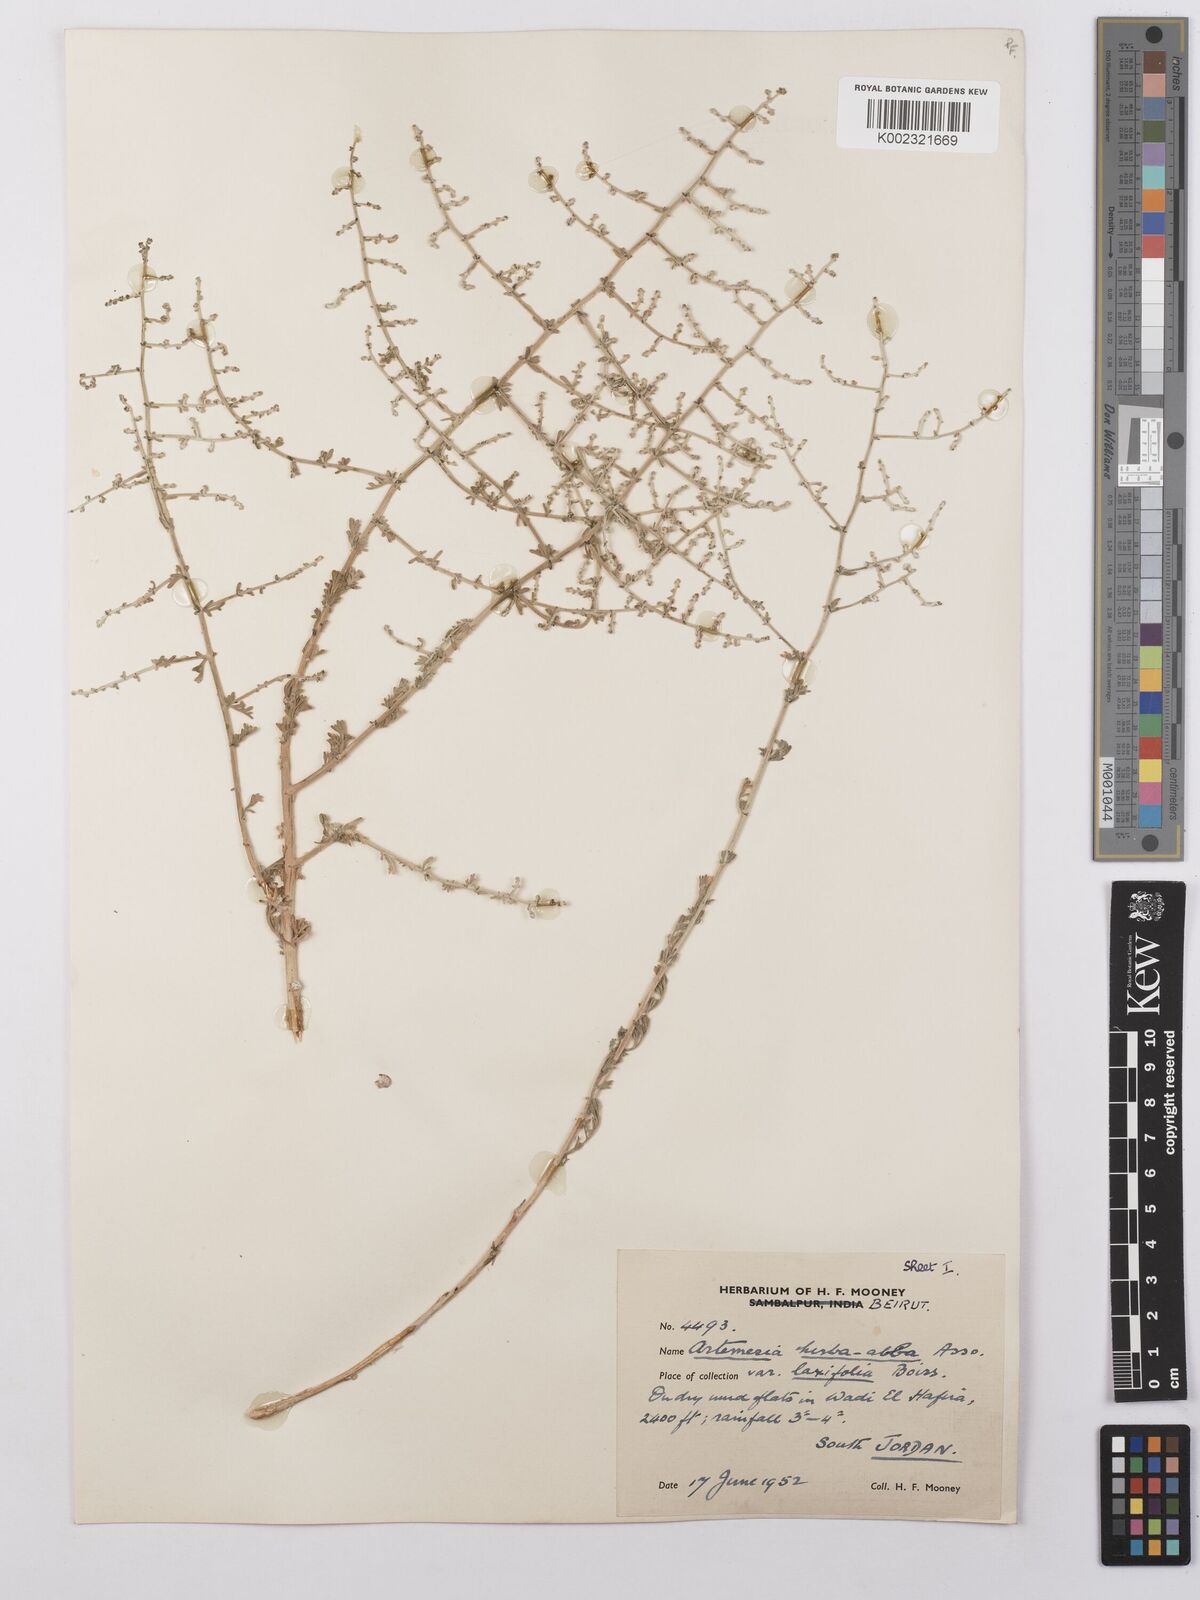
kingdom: Plantae
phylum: Tracheophyta
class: Magnoliopsida
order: Asterales
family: Asteraceae
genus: Artemisia
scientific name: Artemisia herba-alba
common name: White wormwood
